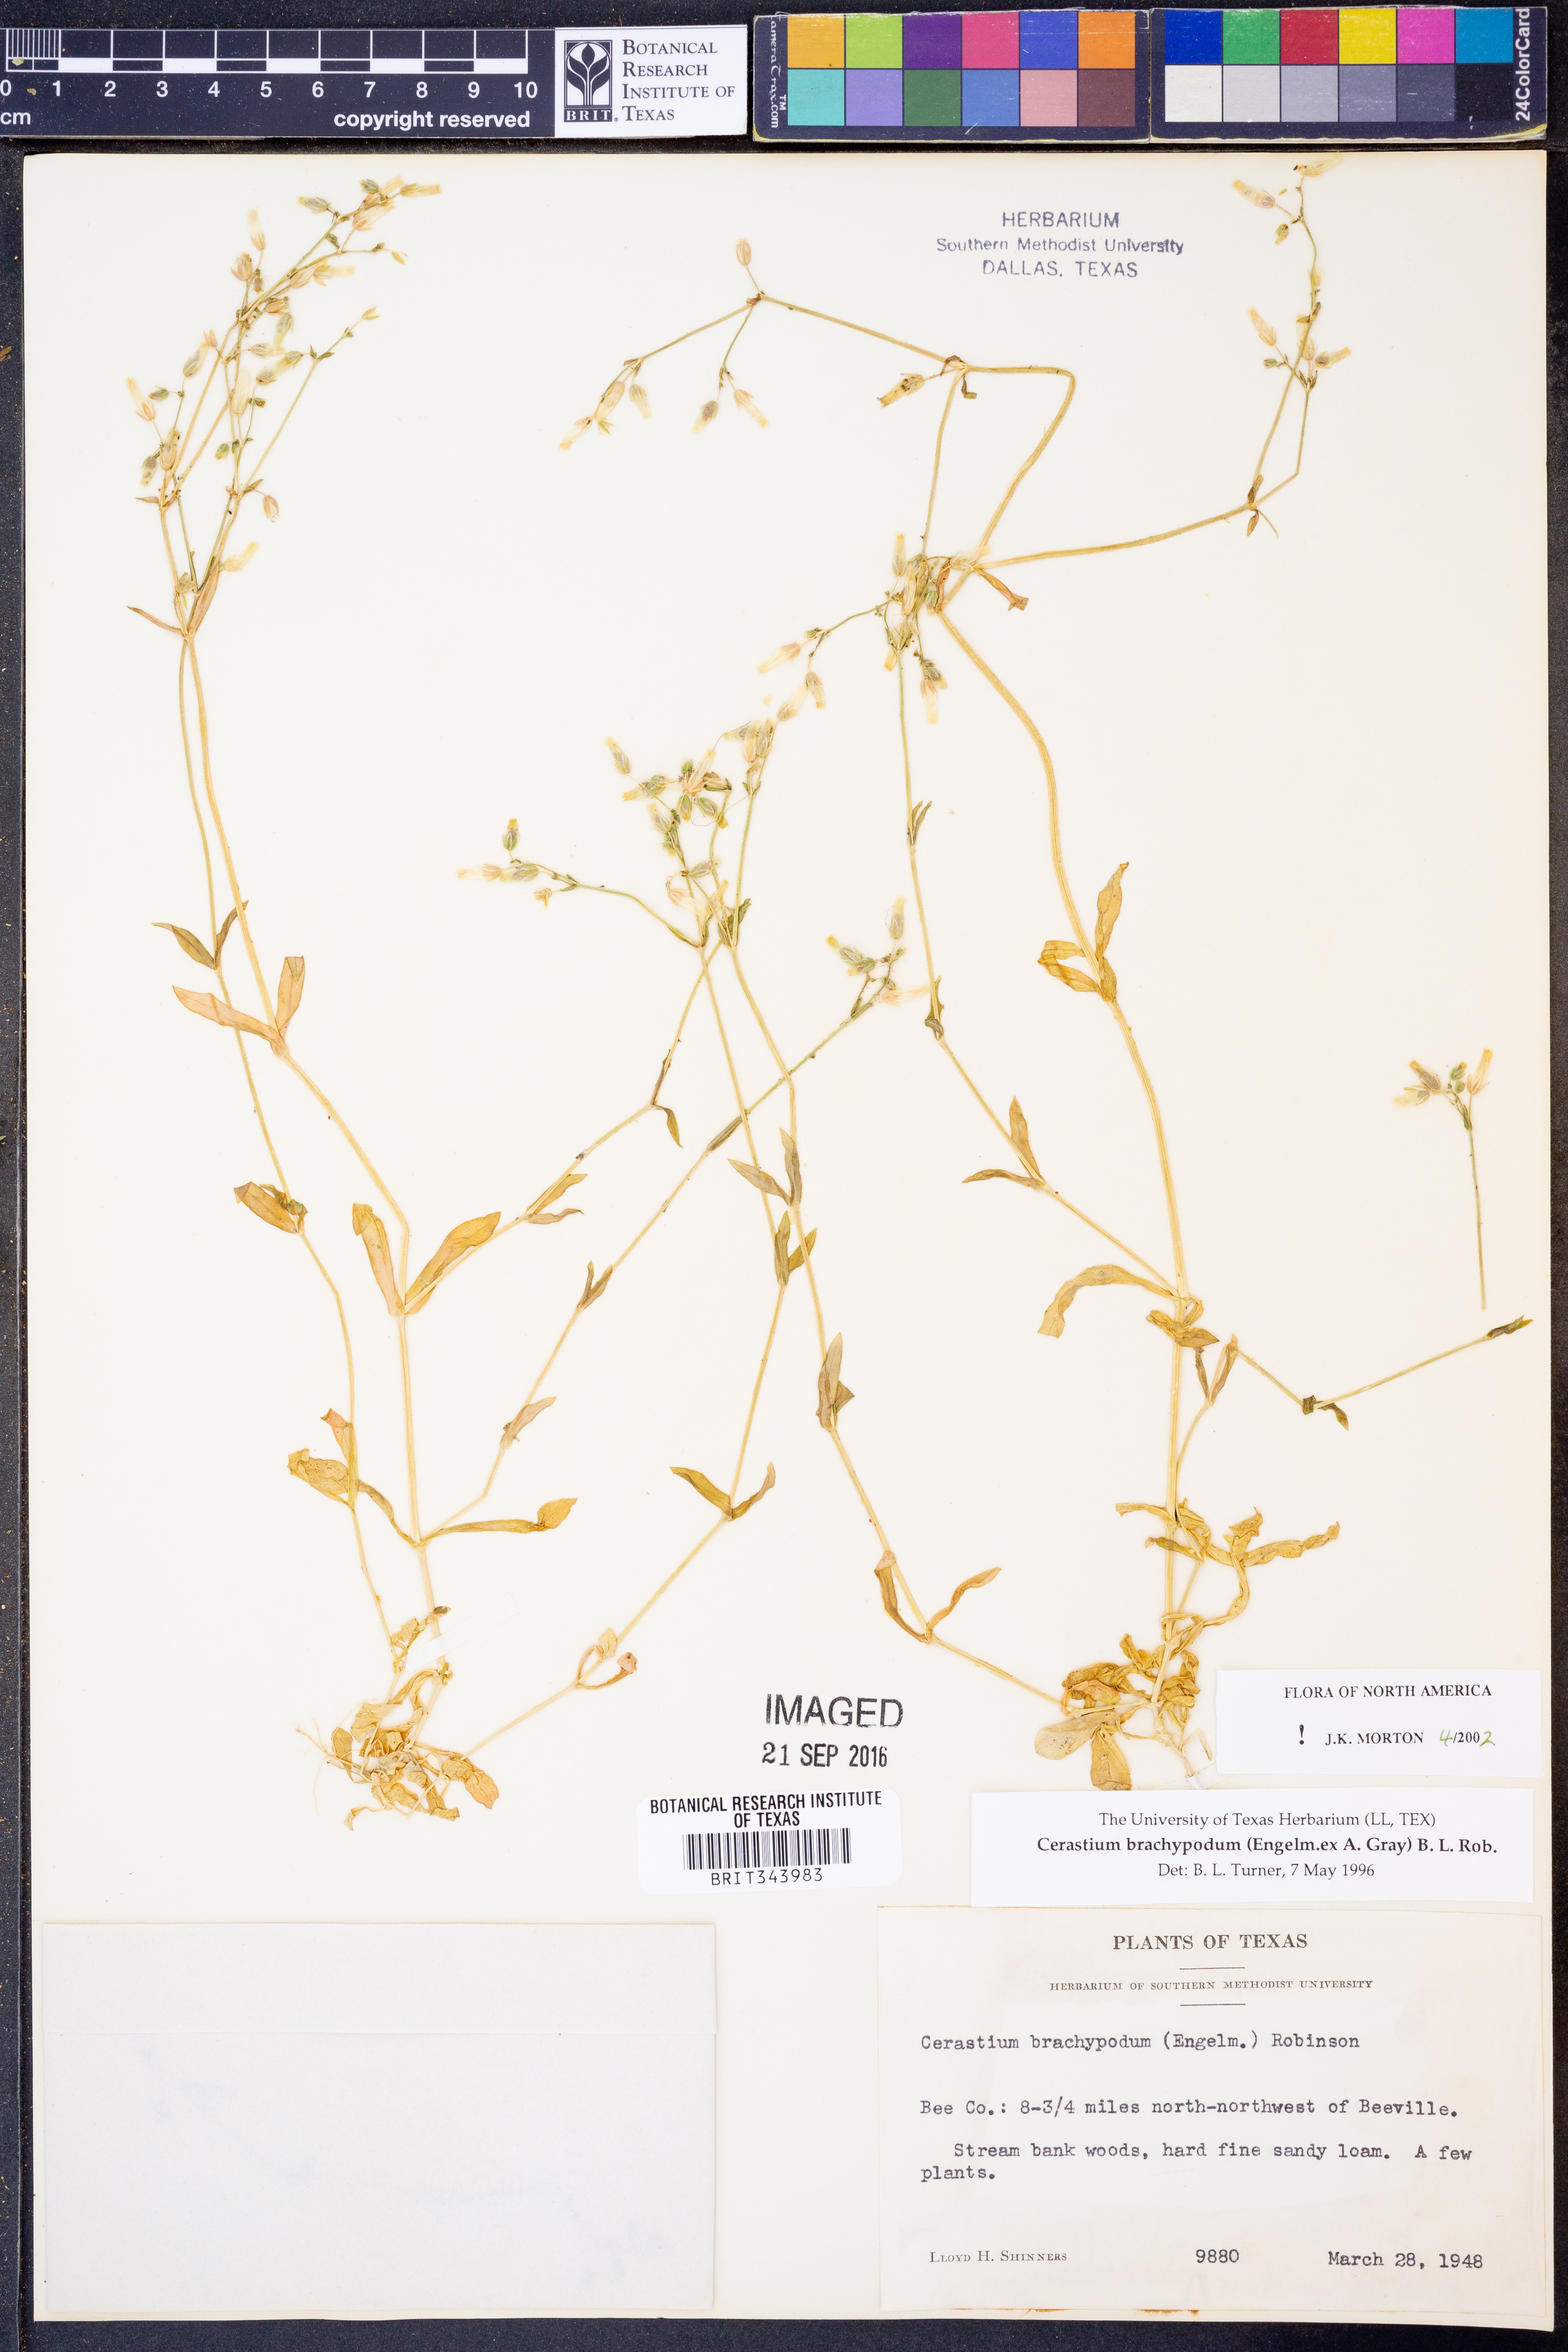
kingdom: Plantae
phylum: Tracheophyta
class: Magnoliopsida
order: Caryophyllales
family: Caryophyllaceae
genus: Cerastium
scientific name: Cerastium brachypodum
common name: Short-pedicelled nodding chickweed
